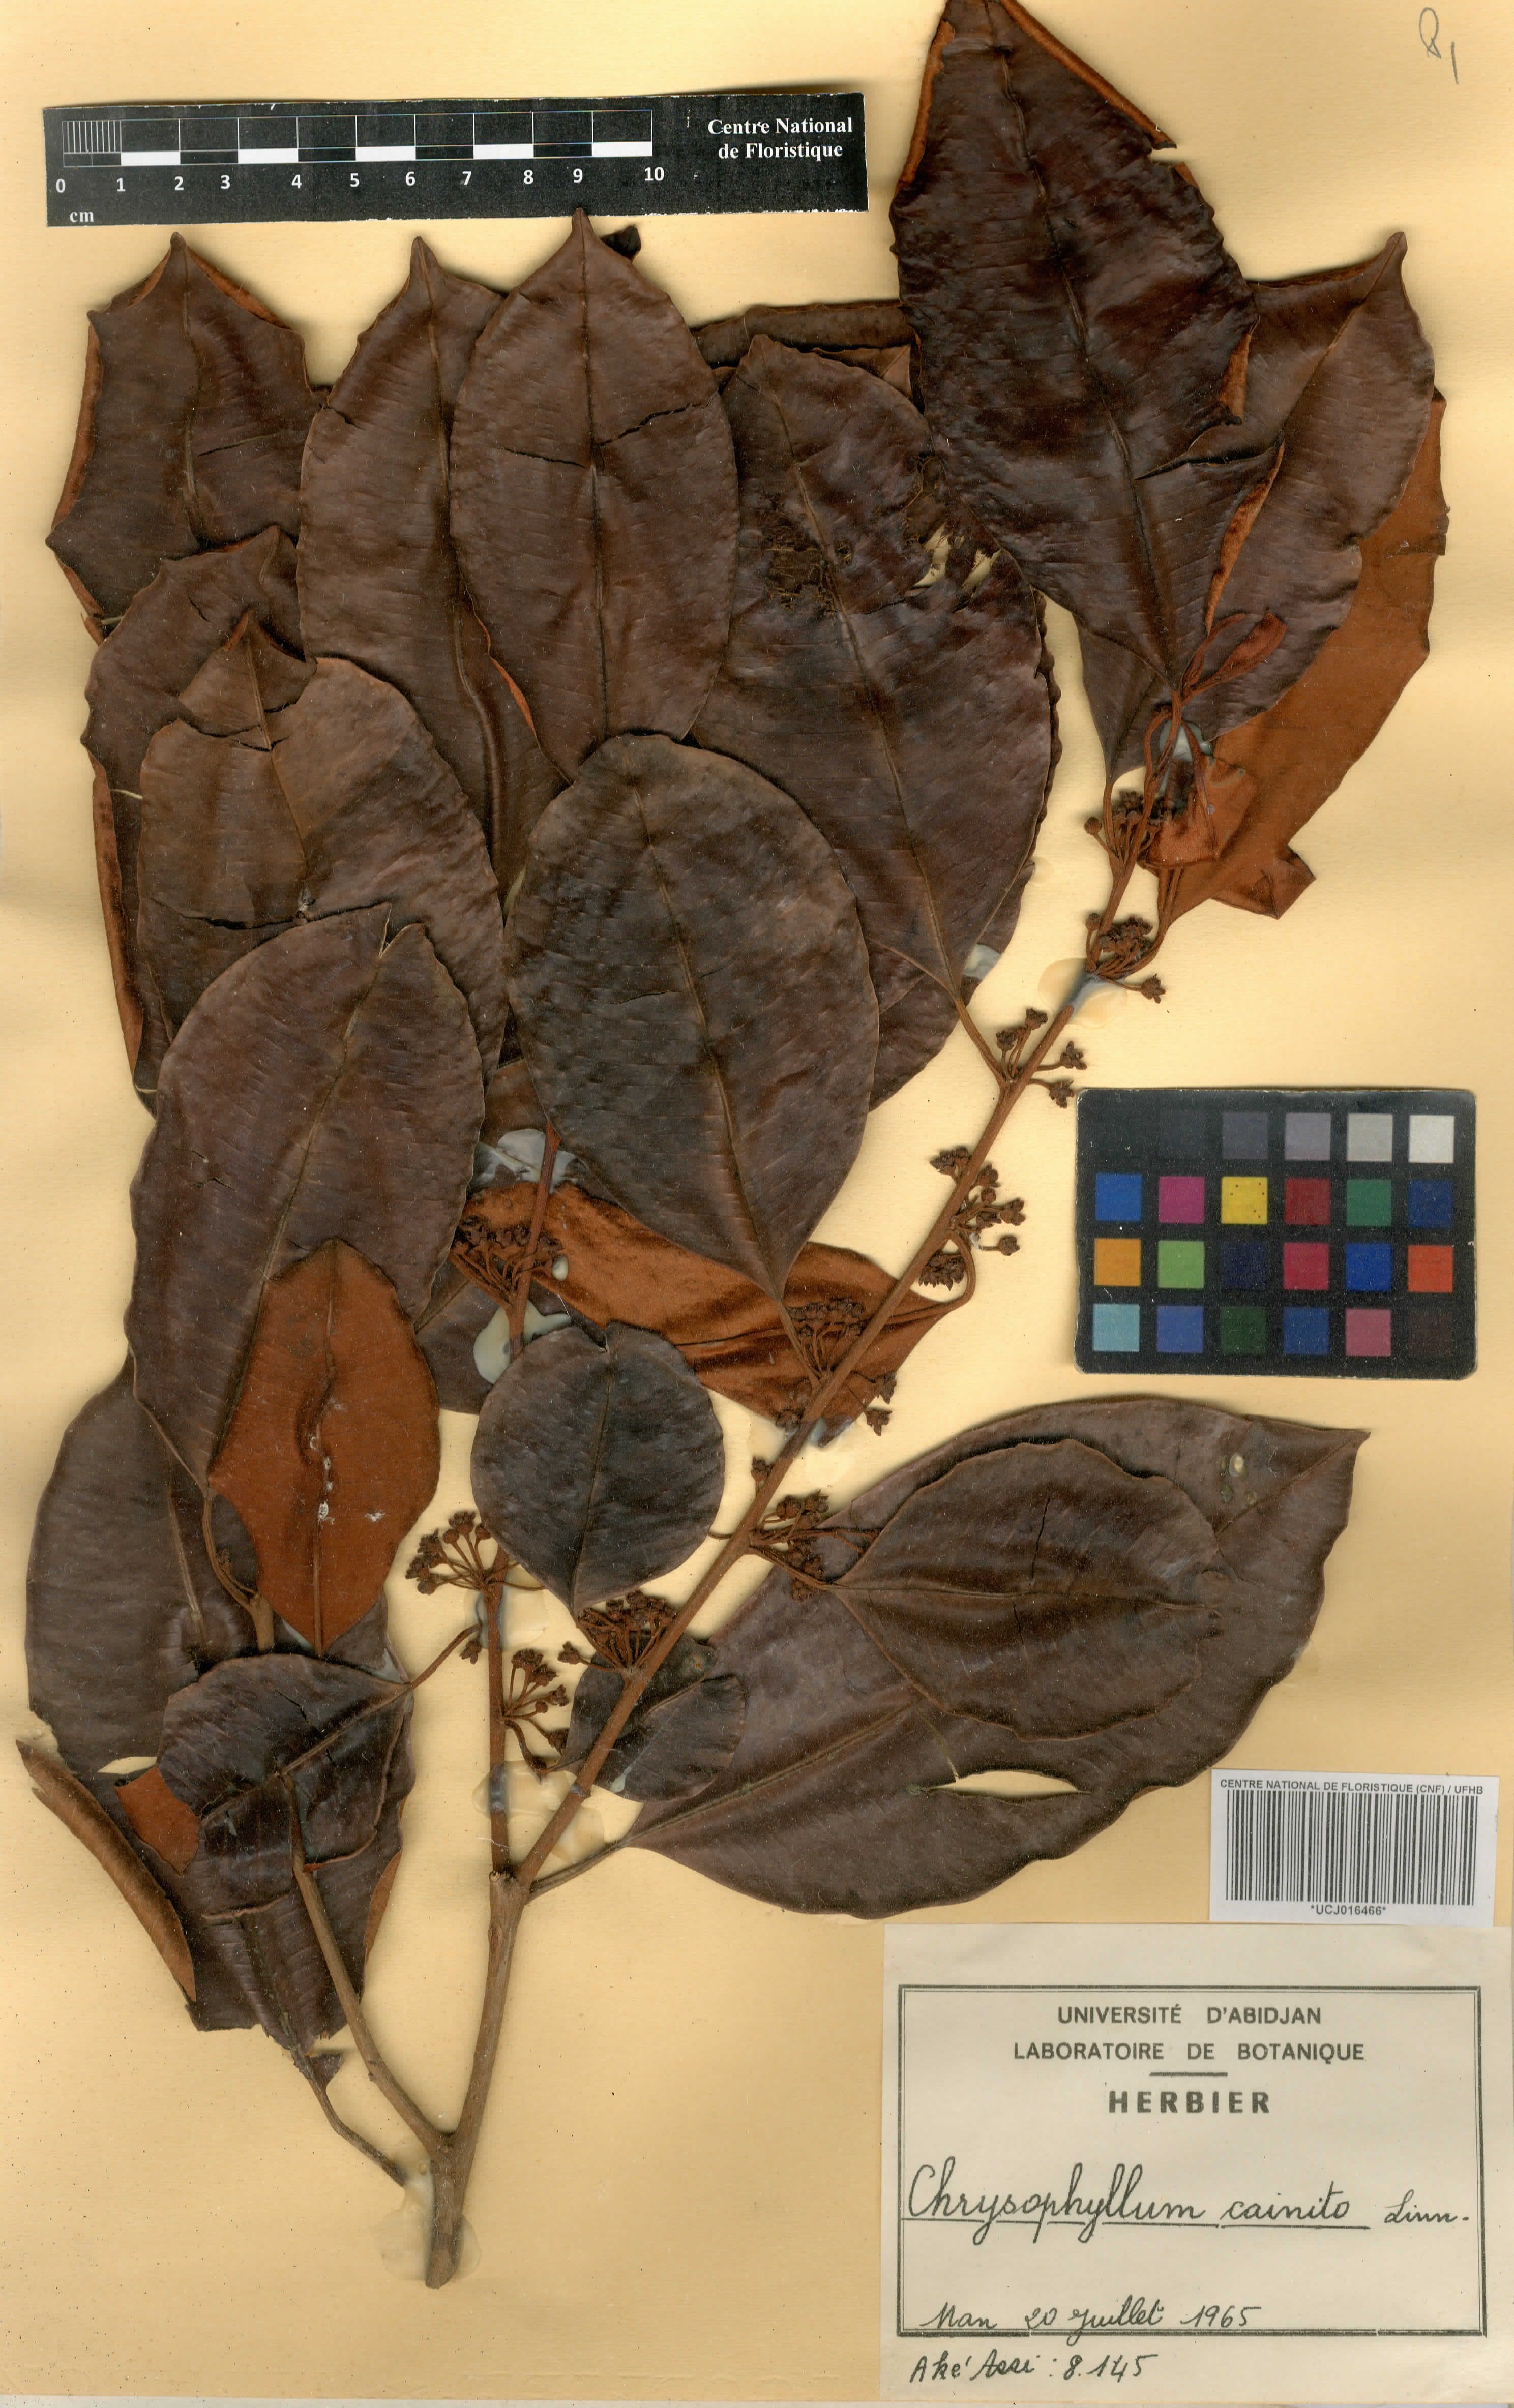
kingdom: Plantae
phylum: Tracheophyta
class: Magnoliopsida
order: Ericales
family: Sapotaceae
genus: Chrysophyllum
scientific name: Chrysophyllum cainito
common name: Star-apple
